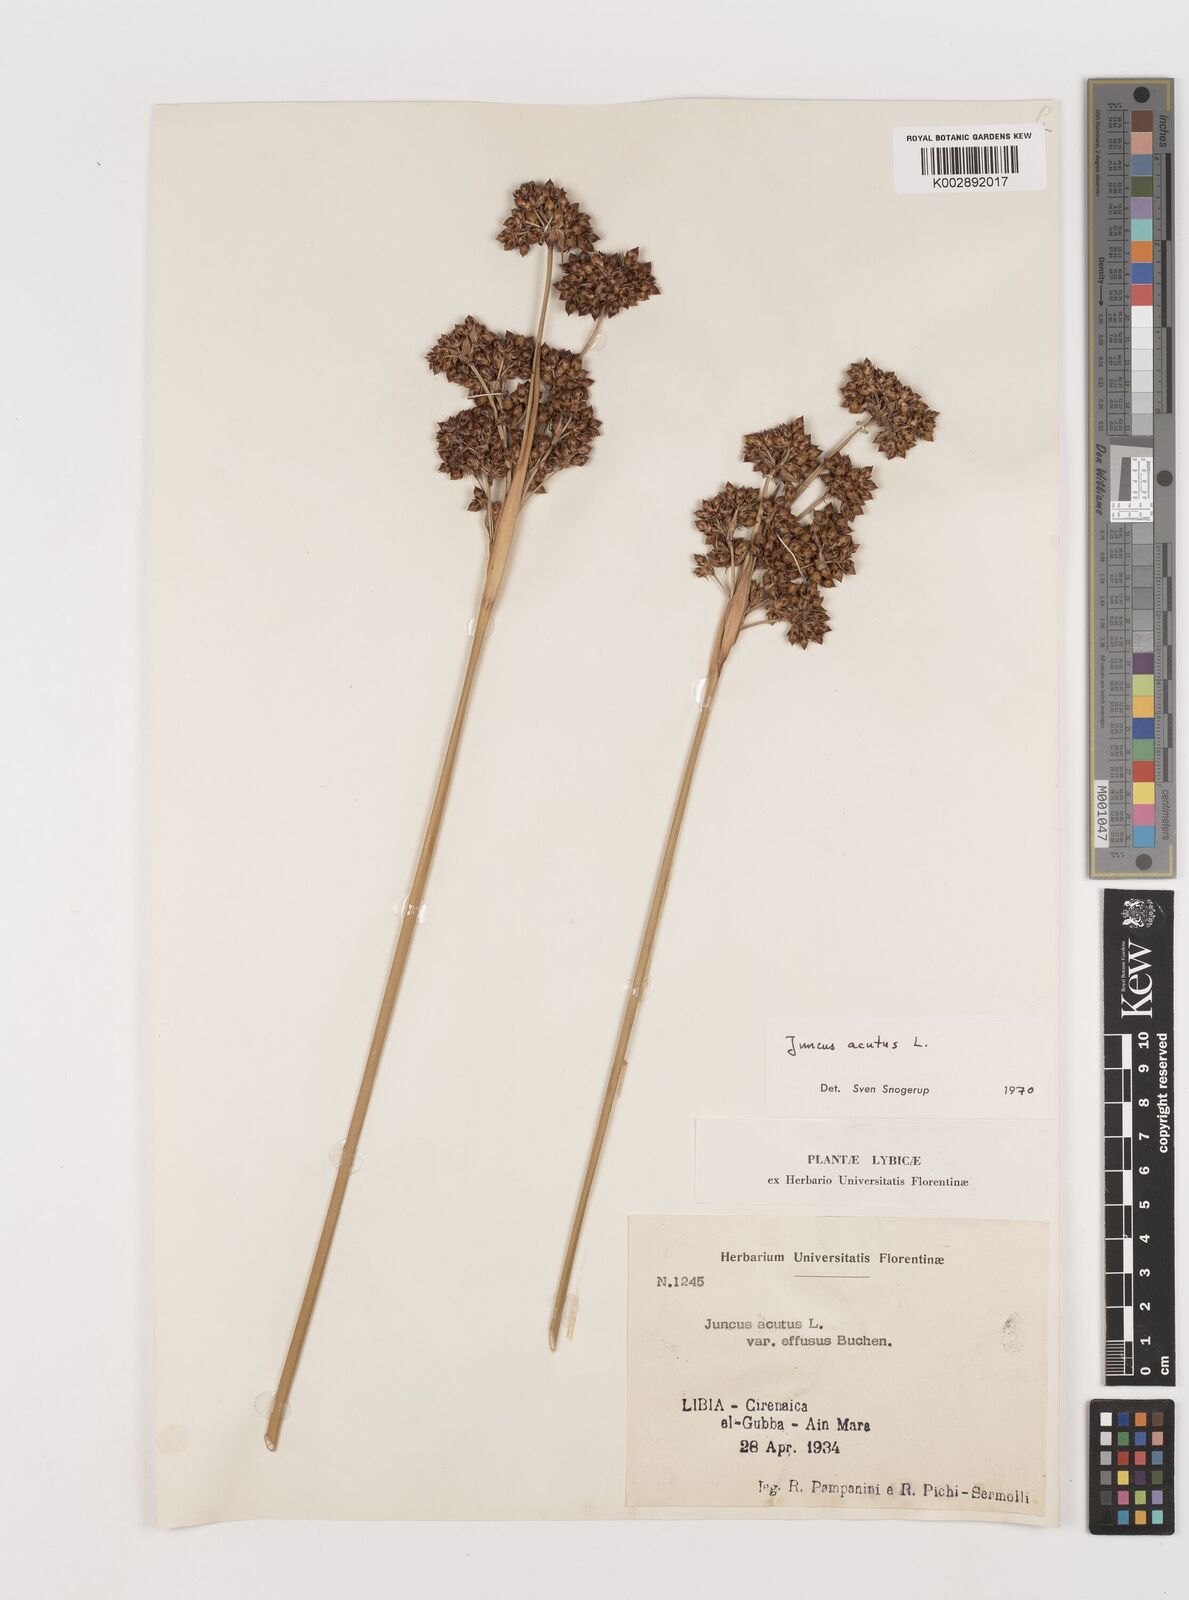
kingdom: Plantae
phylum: Tracheophyta
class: Liliopsida
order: Poales
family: Juncaceae
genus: Juncus
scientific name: Juncus acutus
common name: Sharp rush
